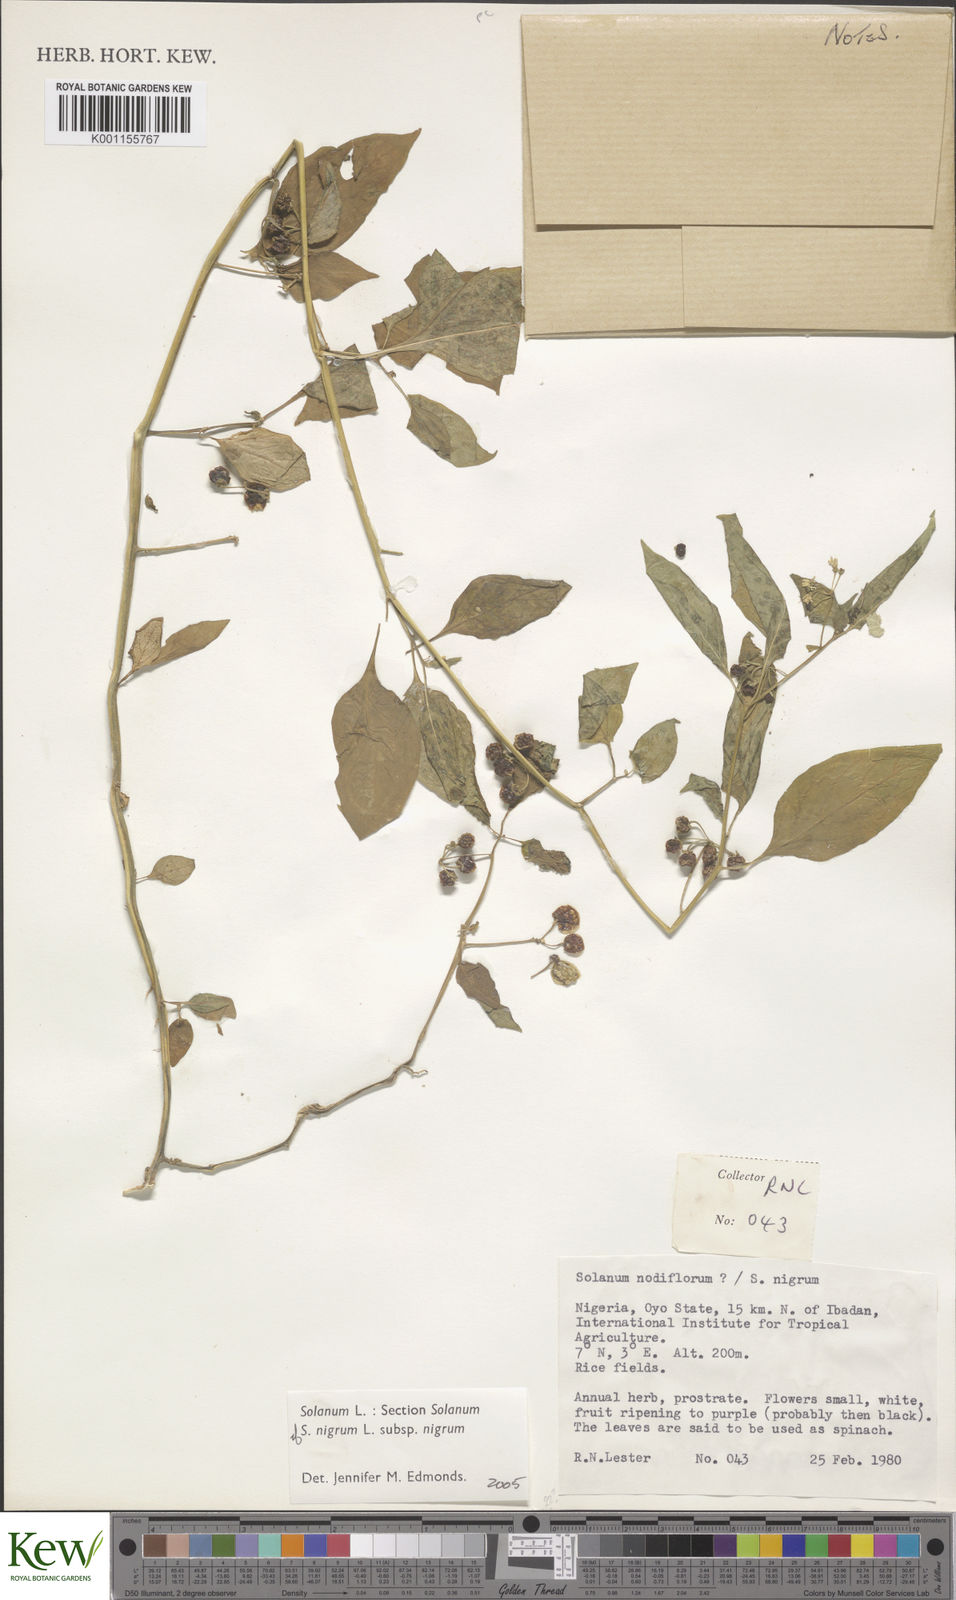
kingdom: Plantae
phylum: Tracheophyta
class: Magnoliopsida
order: Solanales
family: Solanaceae
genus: Solanum
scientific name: Solanum scabrum
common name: Garden-huckleberry
